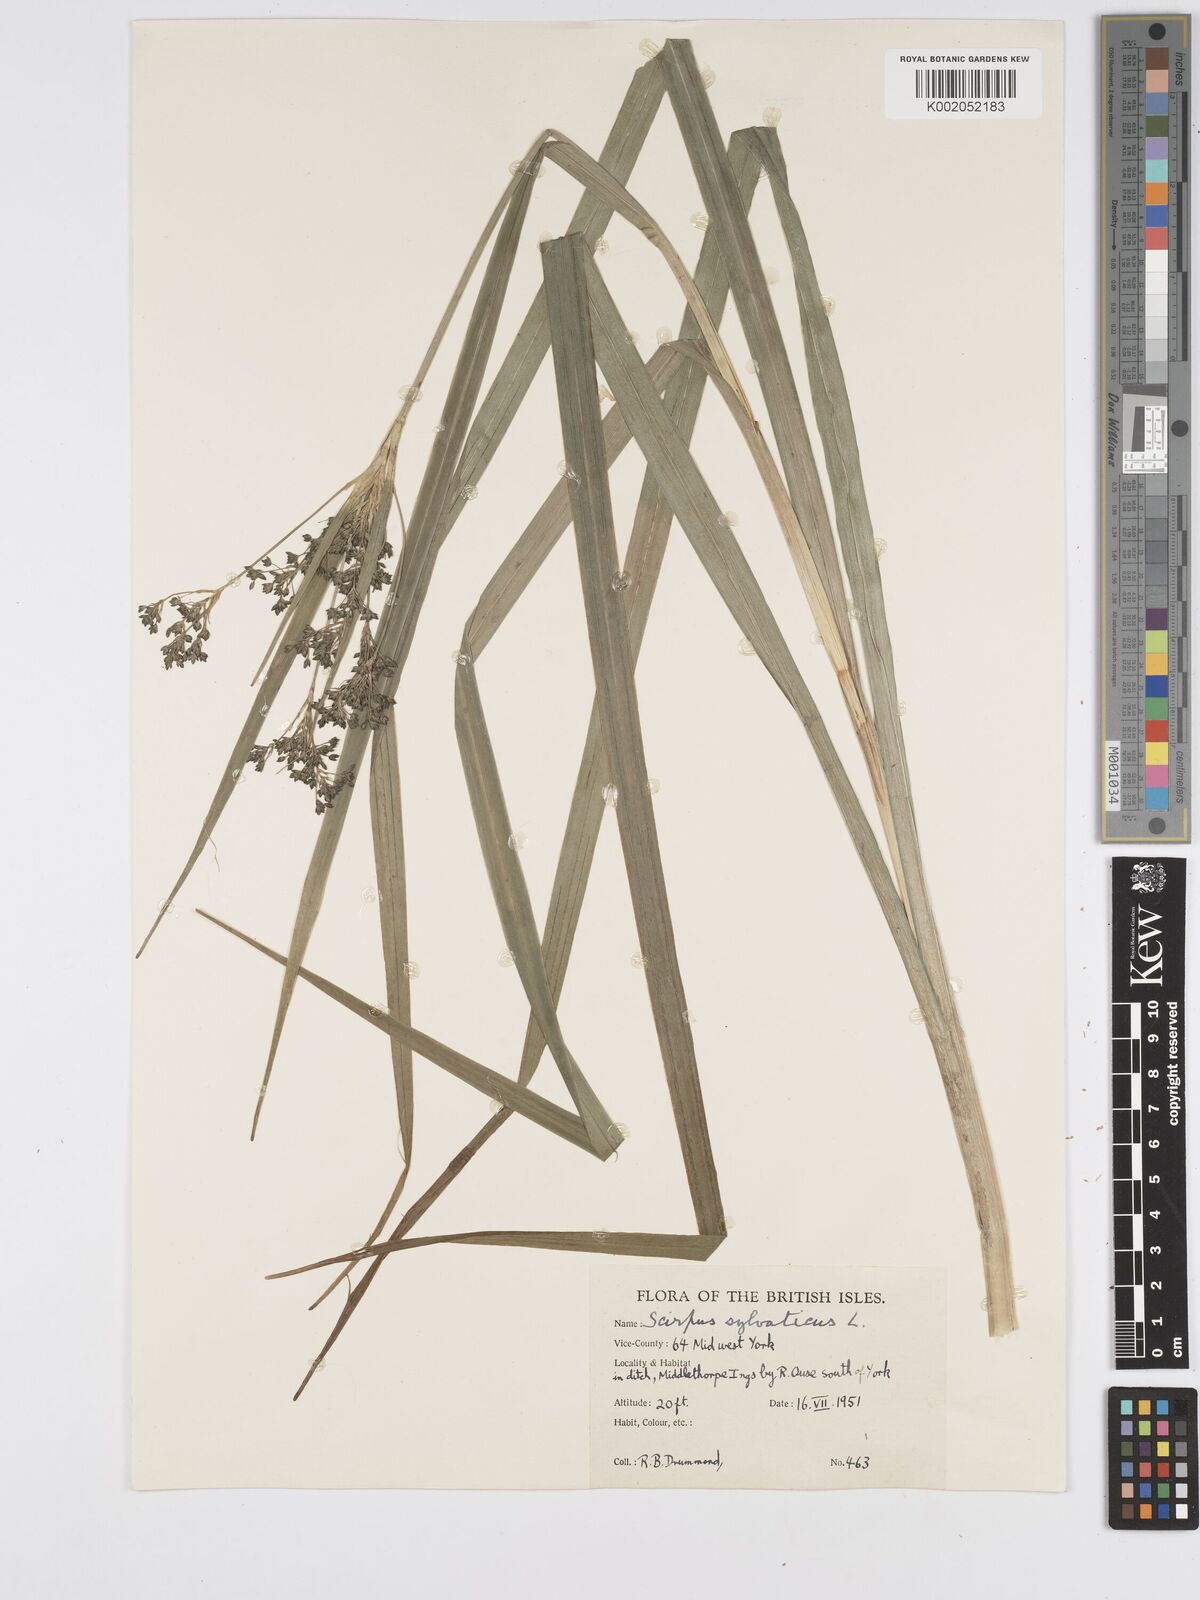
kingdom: Plantae
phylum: Tracheophyta
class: Liliopsida
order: Poales
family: Cyperaceae
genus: Scirpus
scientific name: Scirpus sylvaticus
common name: Wood club-rush
